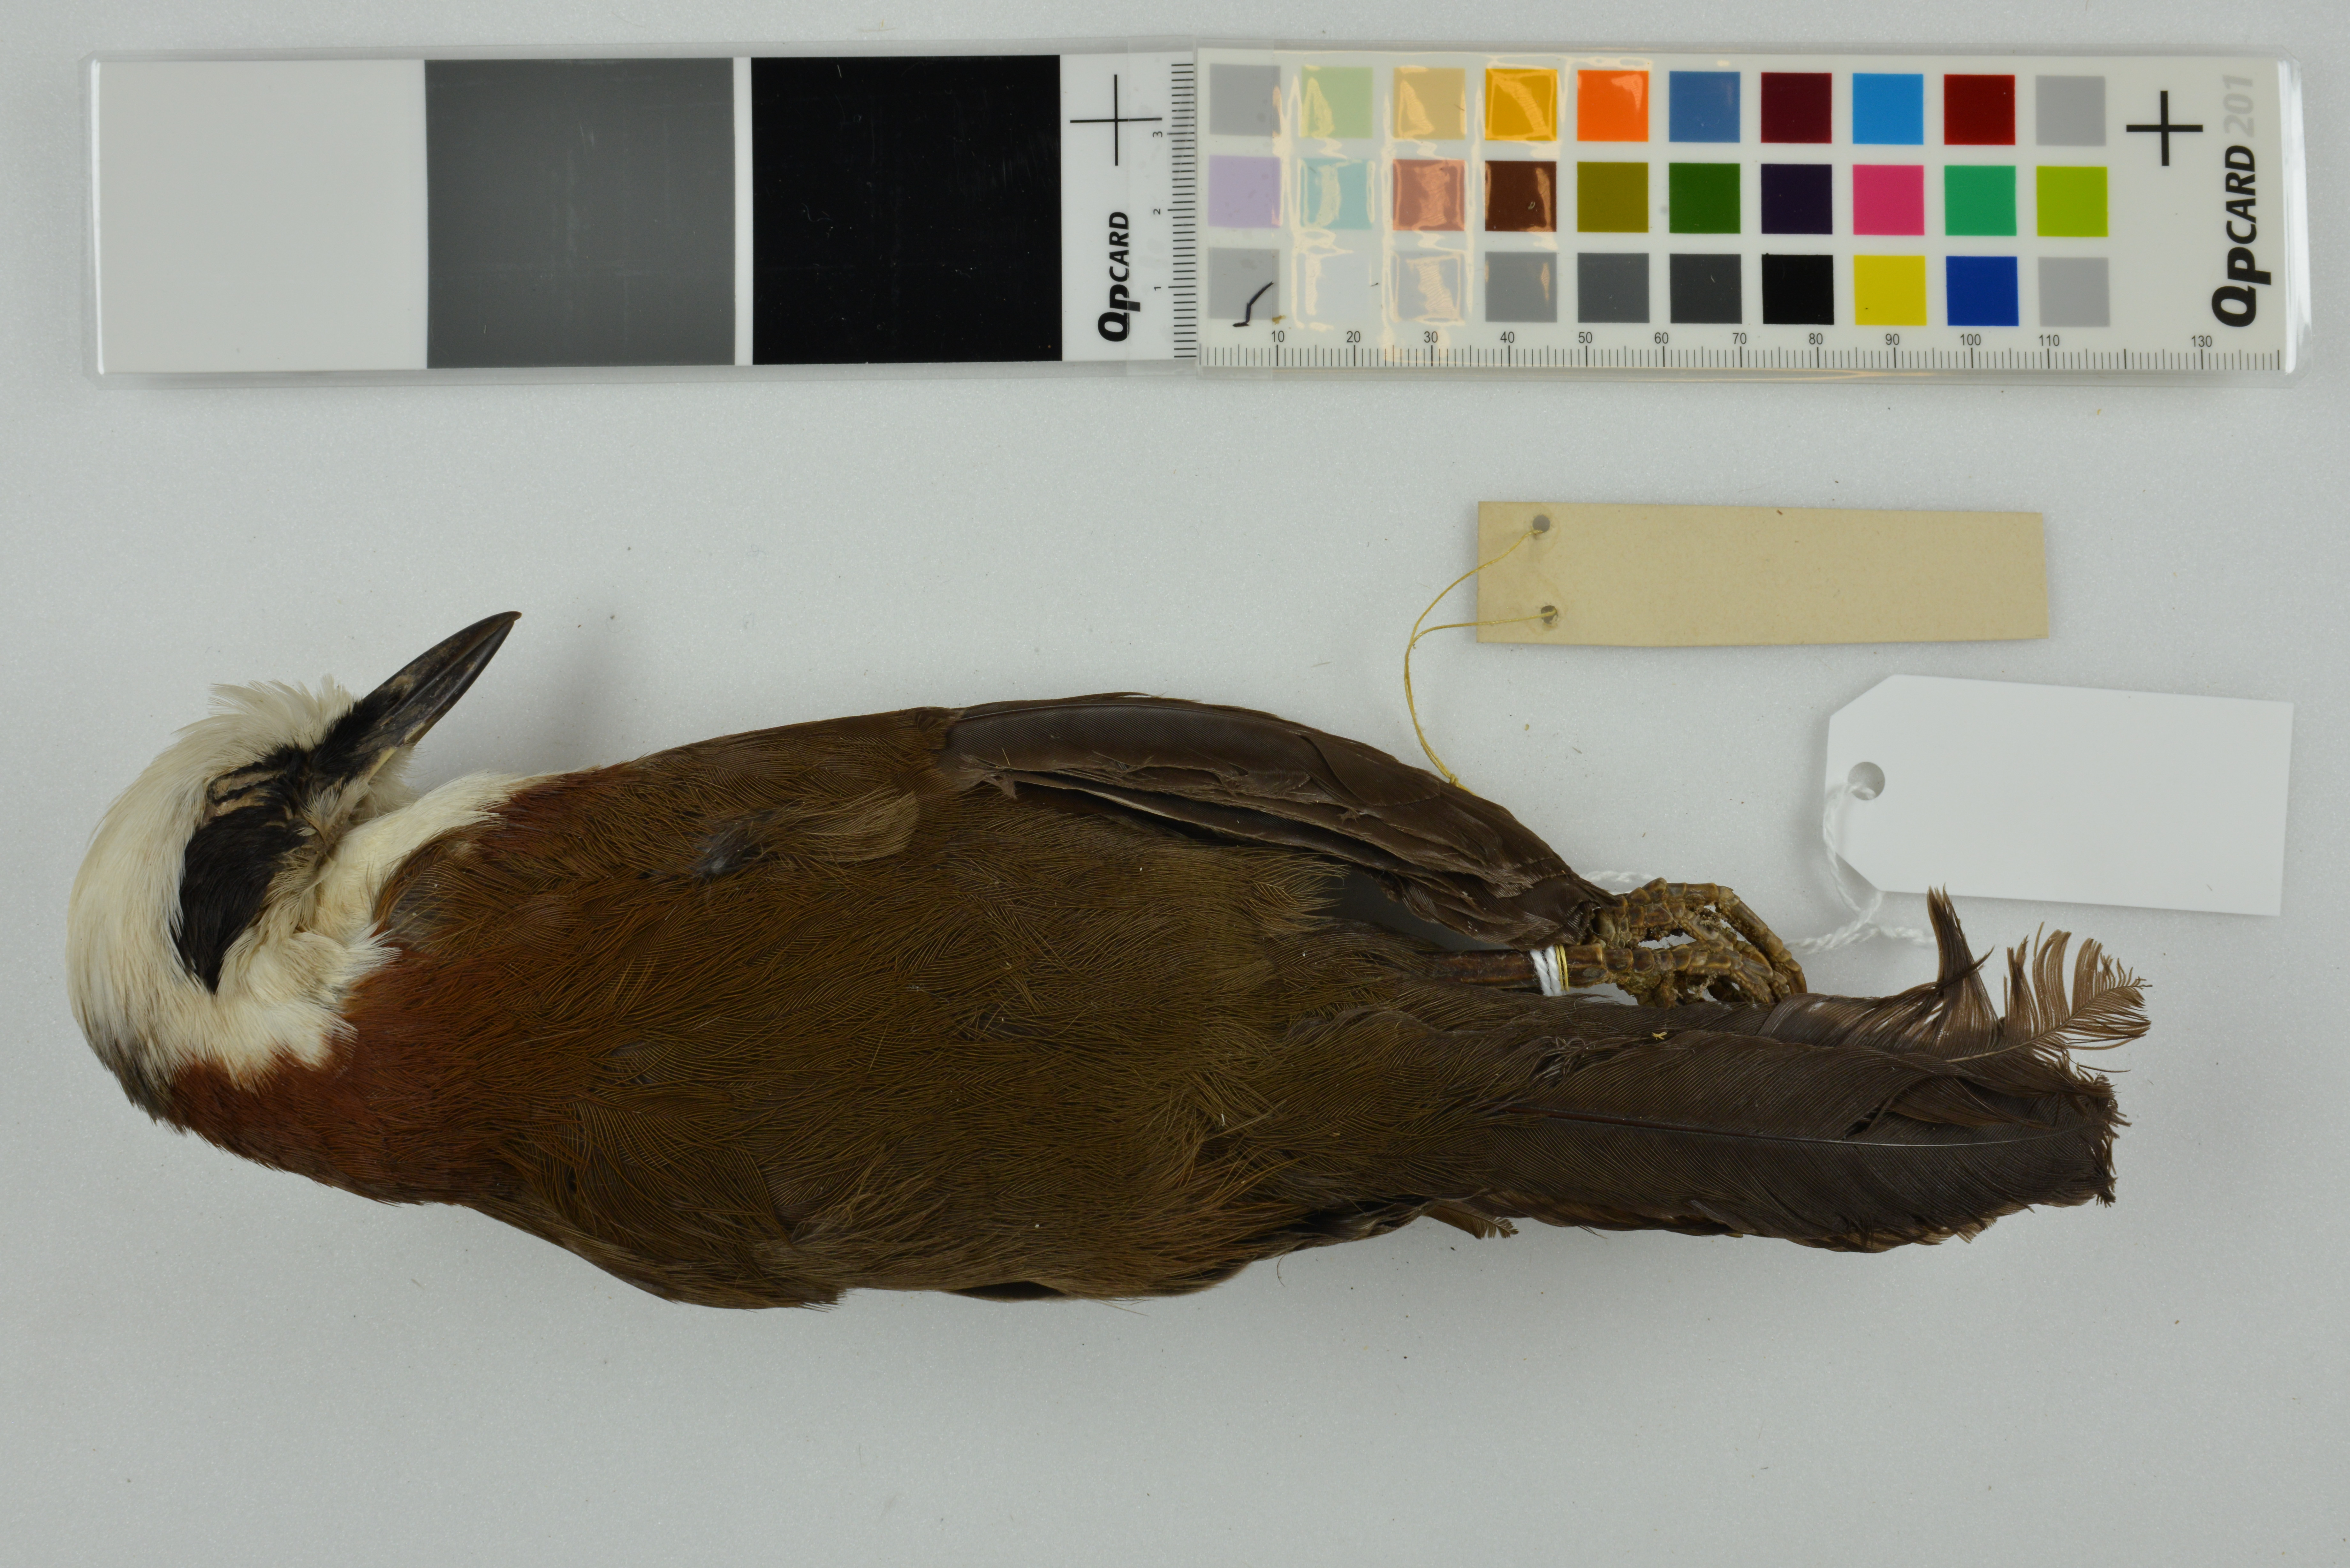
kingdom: Animalia
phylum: Chordata
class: Aves
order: Passeriformes
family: Leiothrichidae
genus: Garrulax
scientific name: Garrulax leucolophus
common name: White-crested laughingthrush
